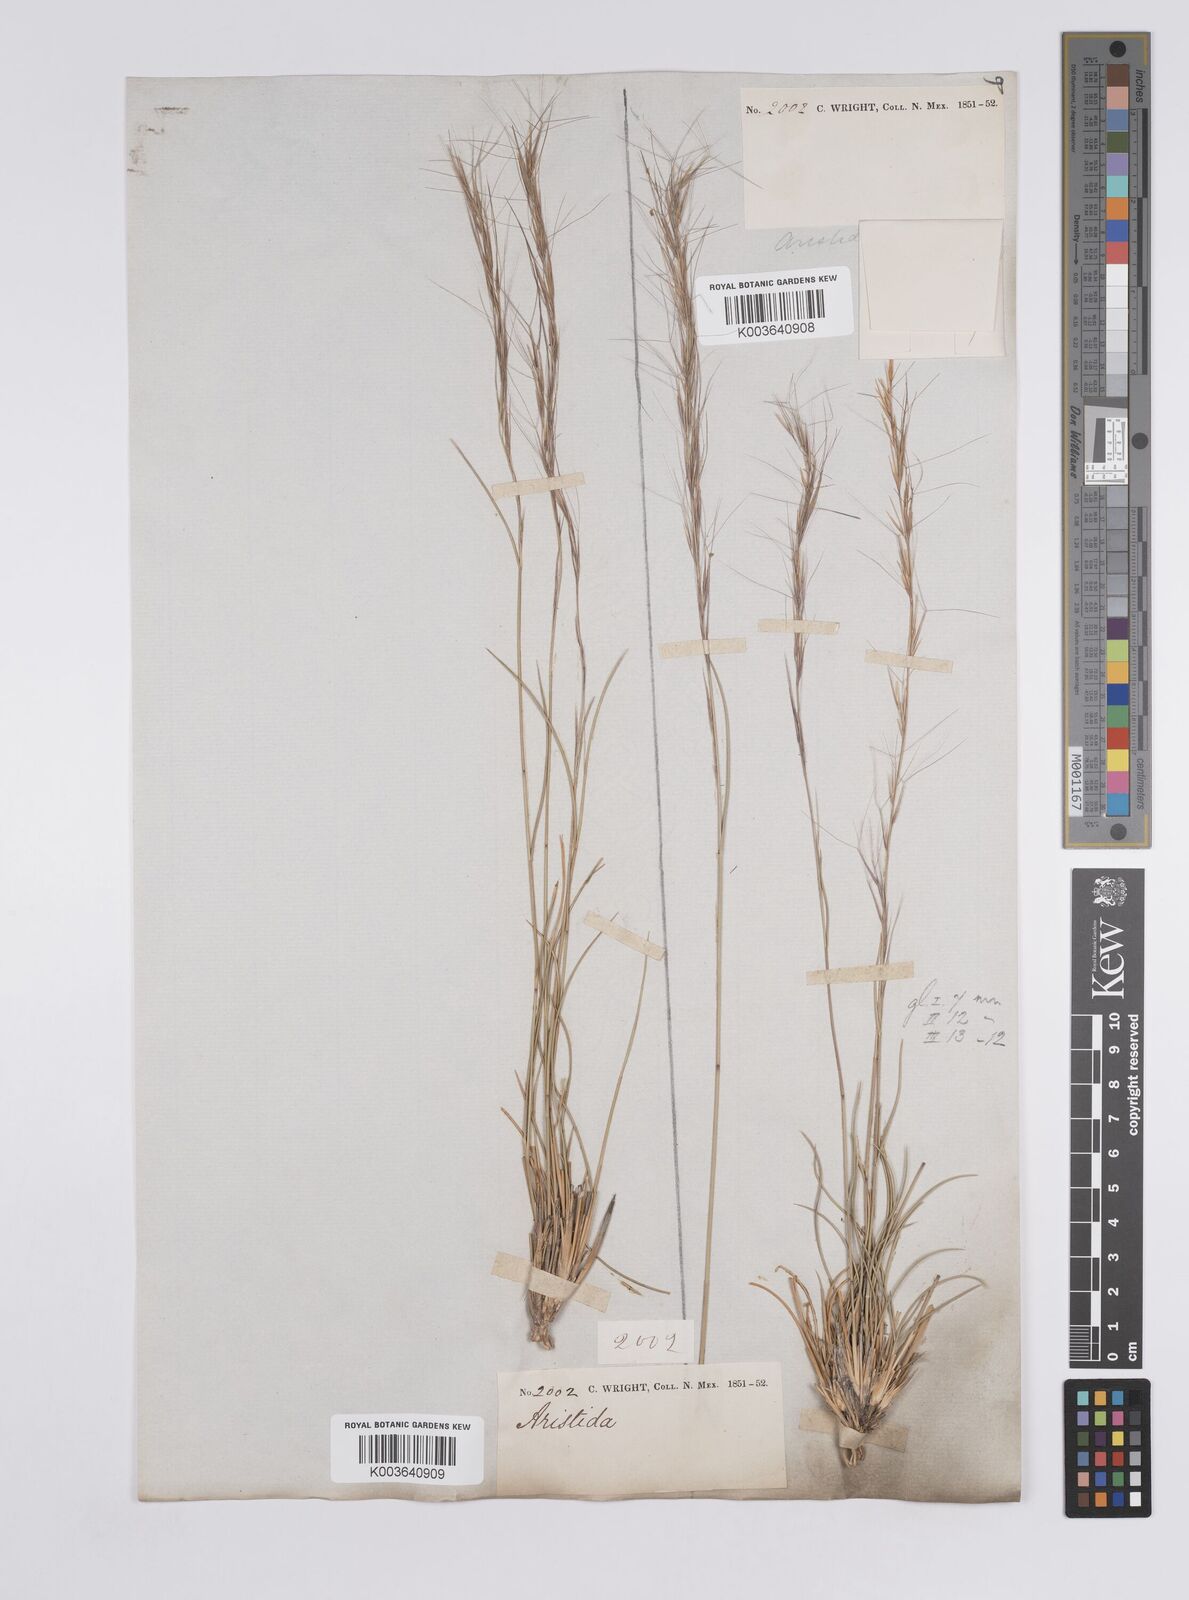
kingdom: Plantae
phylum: Tracheophyta
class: Liliopsida
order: Poales
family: Poaceae
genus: Aristida
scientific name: Aristida purpurea
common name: Purple threeawn
